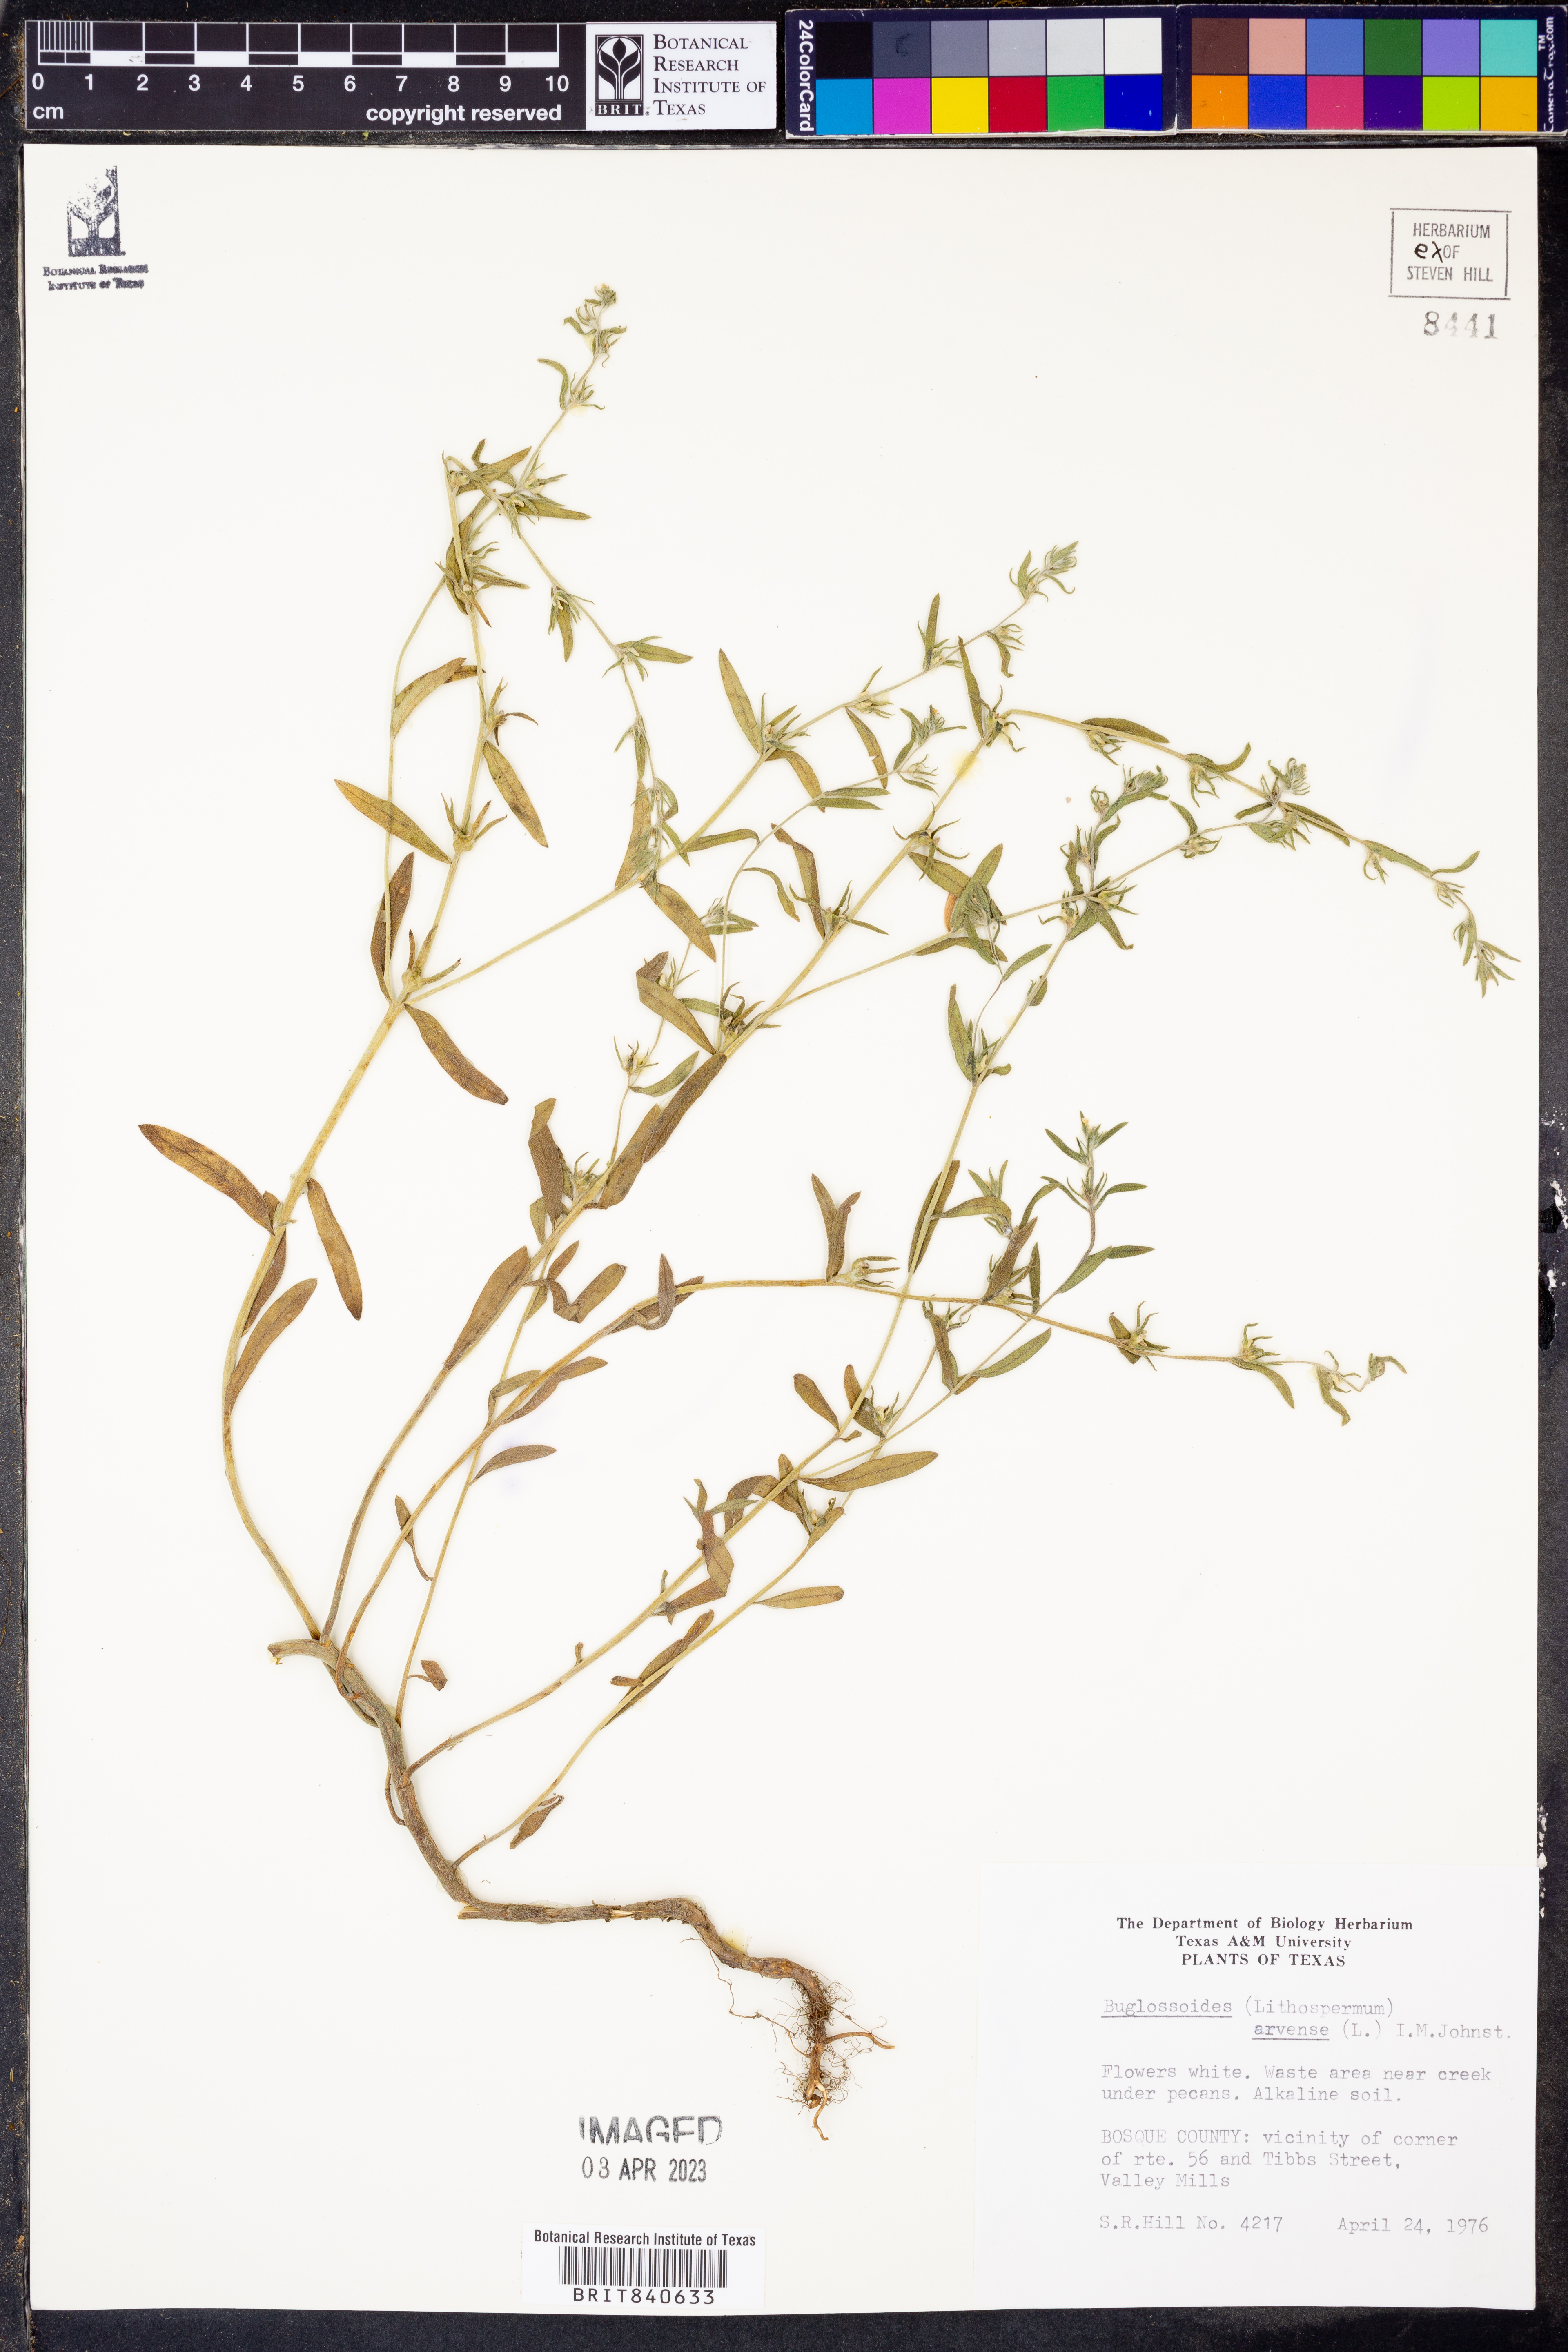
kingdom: Plantae
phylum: Tracheophyta
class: Magnoliopsida
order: Boraginales
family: Boraginaceae
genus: Buglossoides
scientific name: Buglossoides arvensis
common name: Corn gromwell
